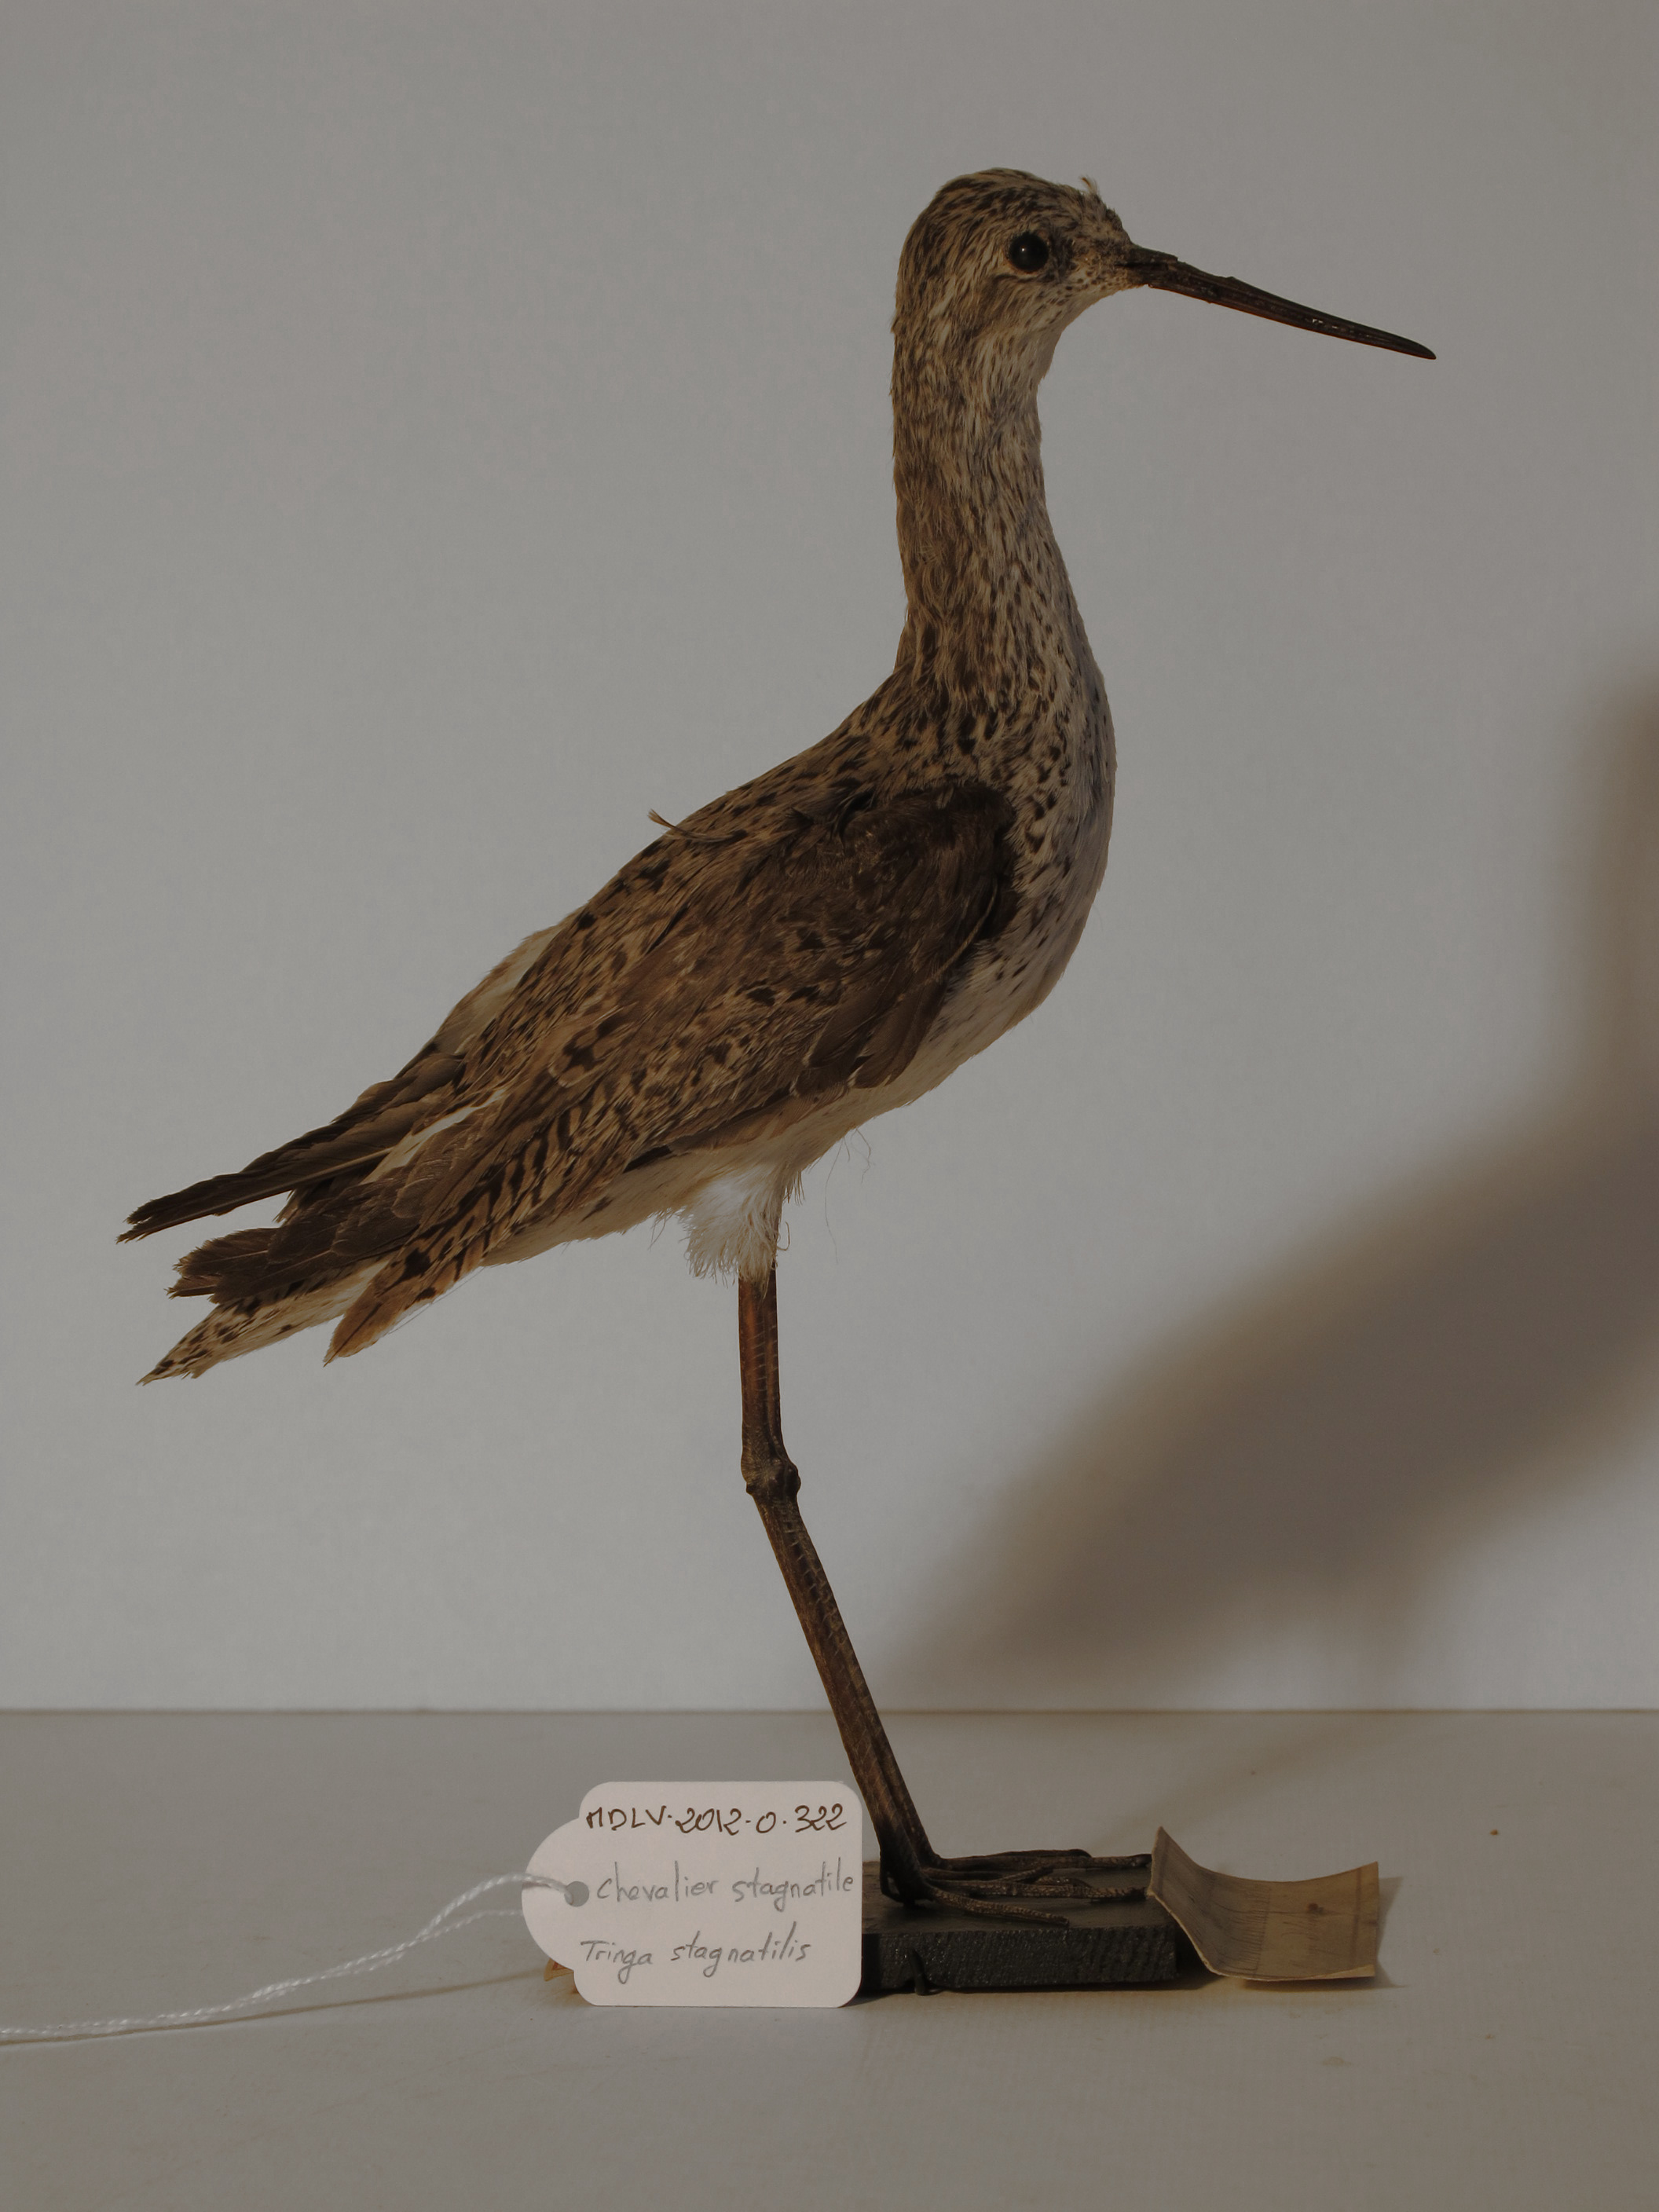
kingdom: Animalia
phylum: Chordata
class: Aves
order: Charadriiformes
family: Scolopacidae
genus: Tringa
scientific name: Tringa stagnatilis
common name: Marsh Sandpiper
